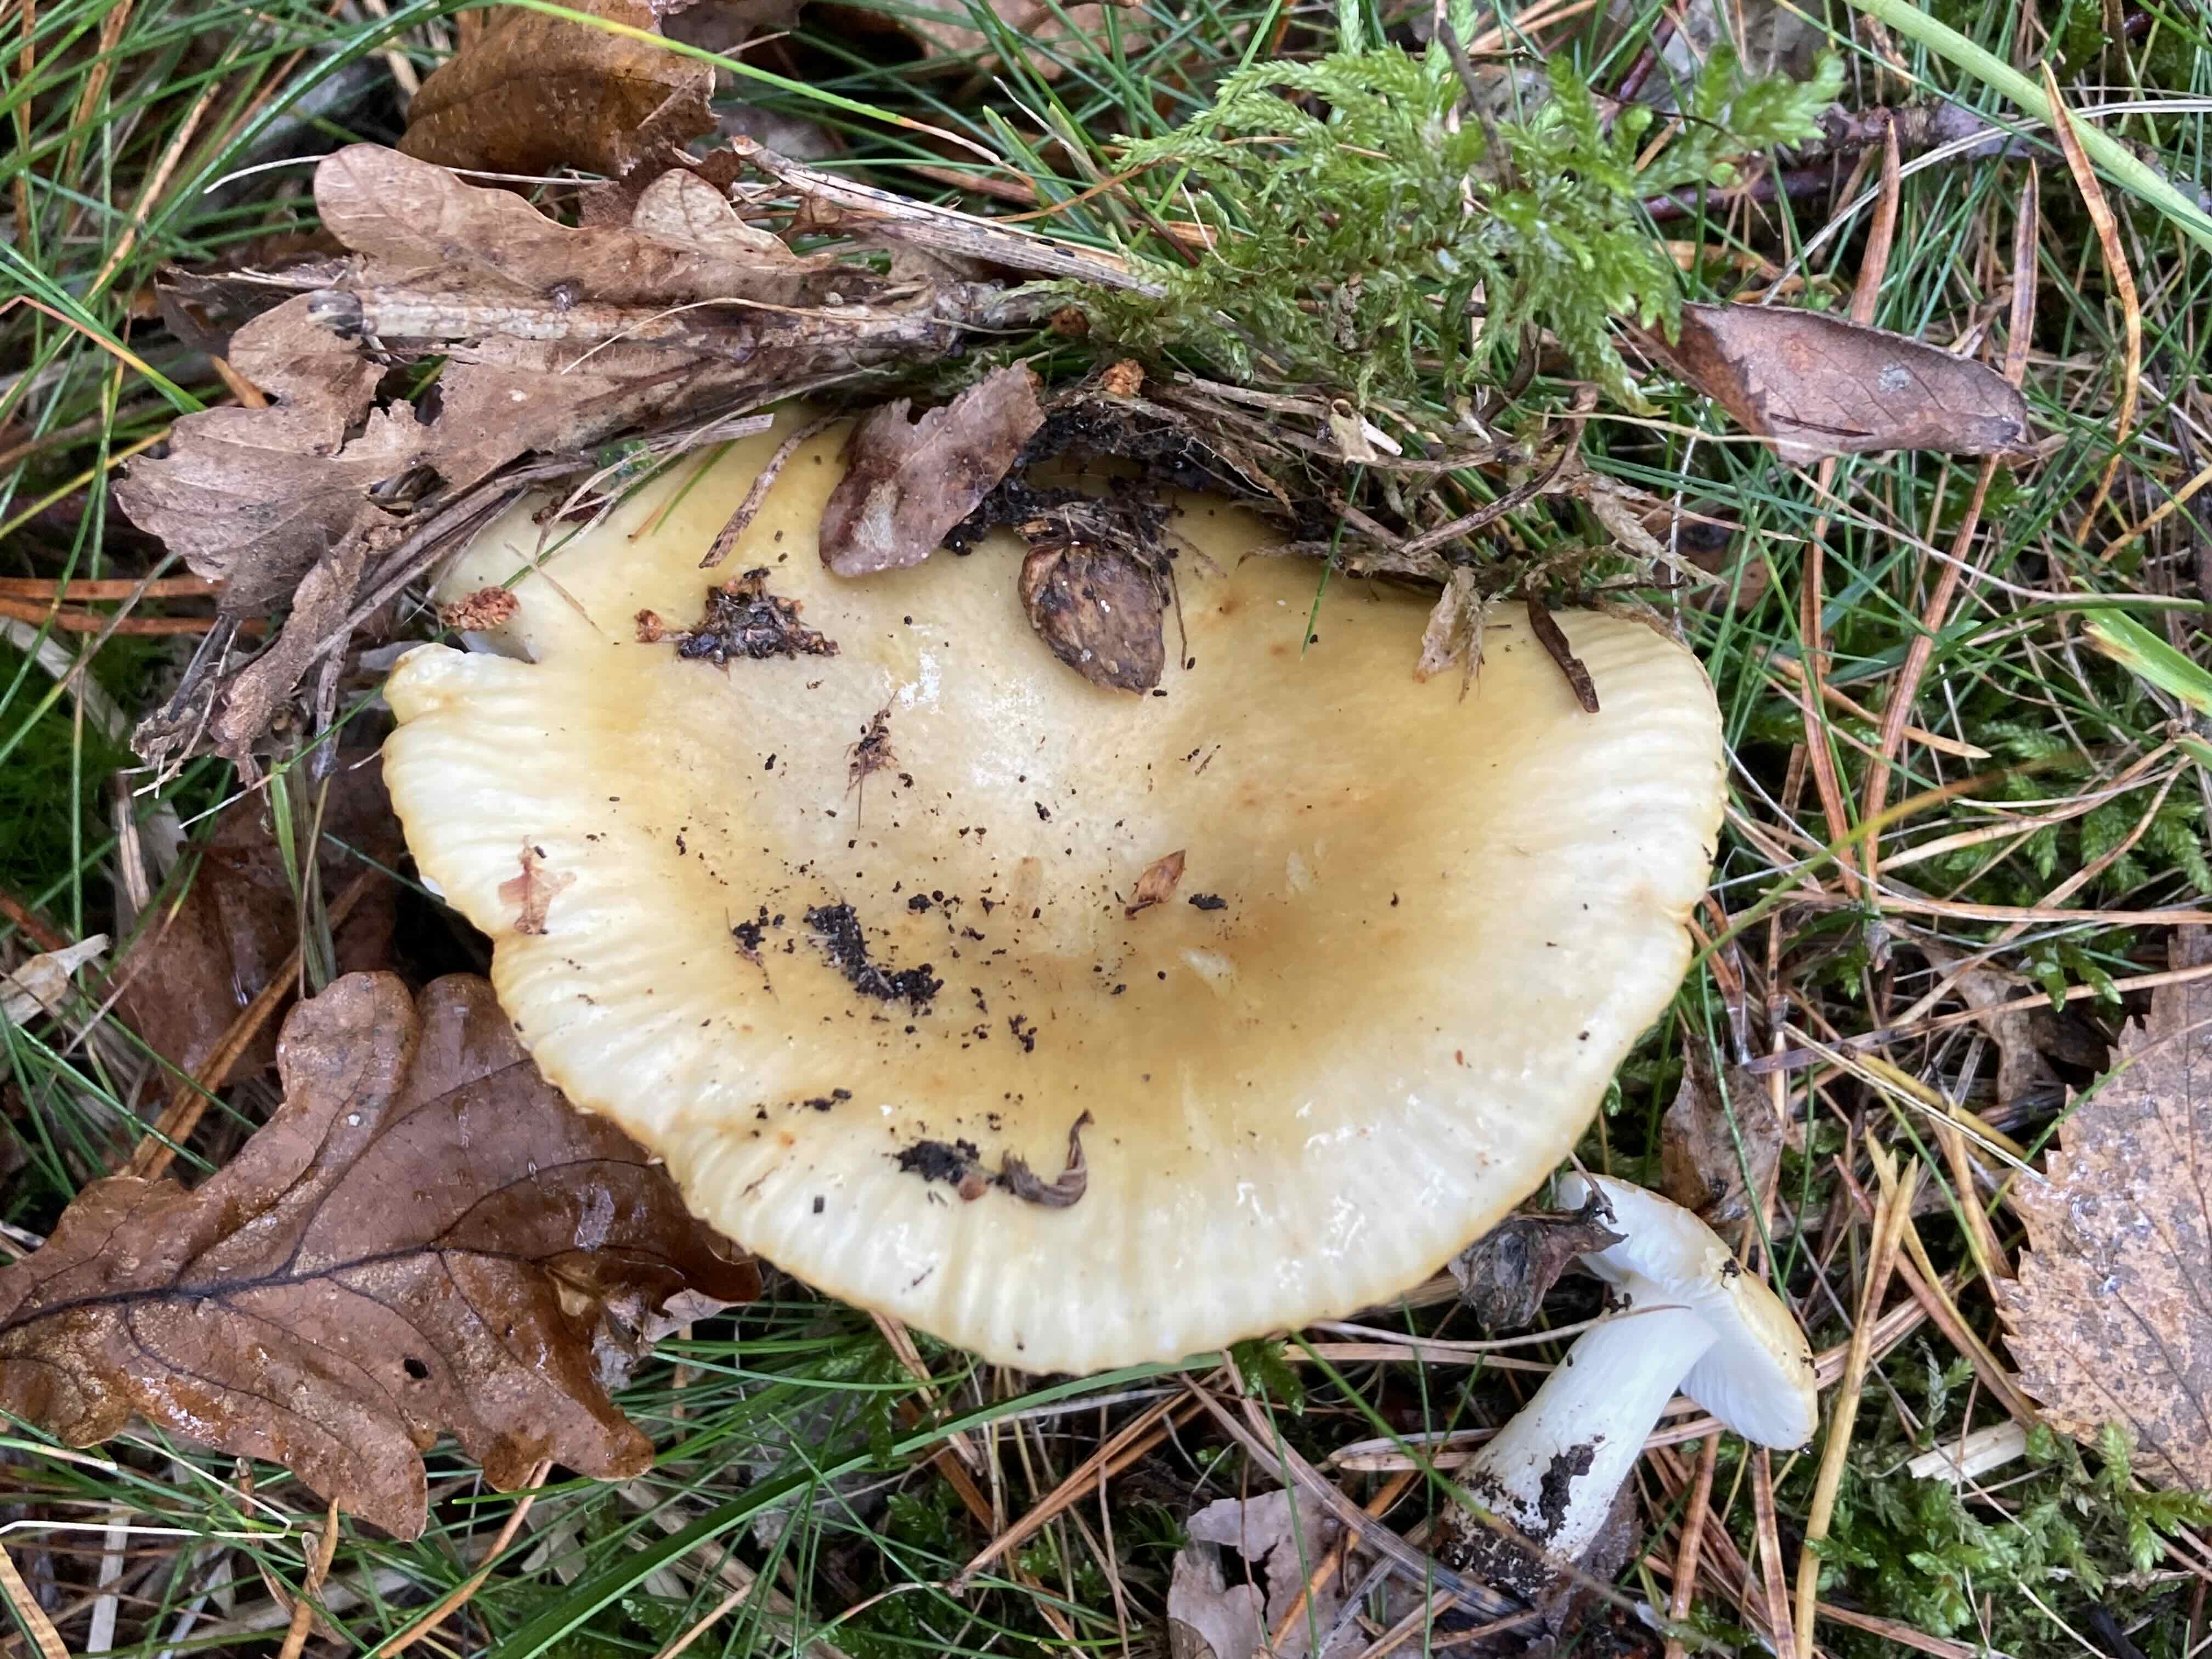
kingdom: Fungi
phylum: Basidiomycota
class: Agaricomycetes
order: Russulales
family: Russulaceae
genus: Russula
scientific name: Russula
